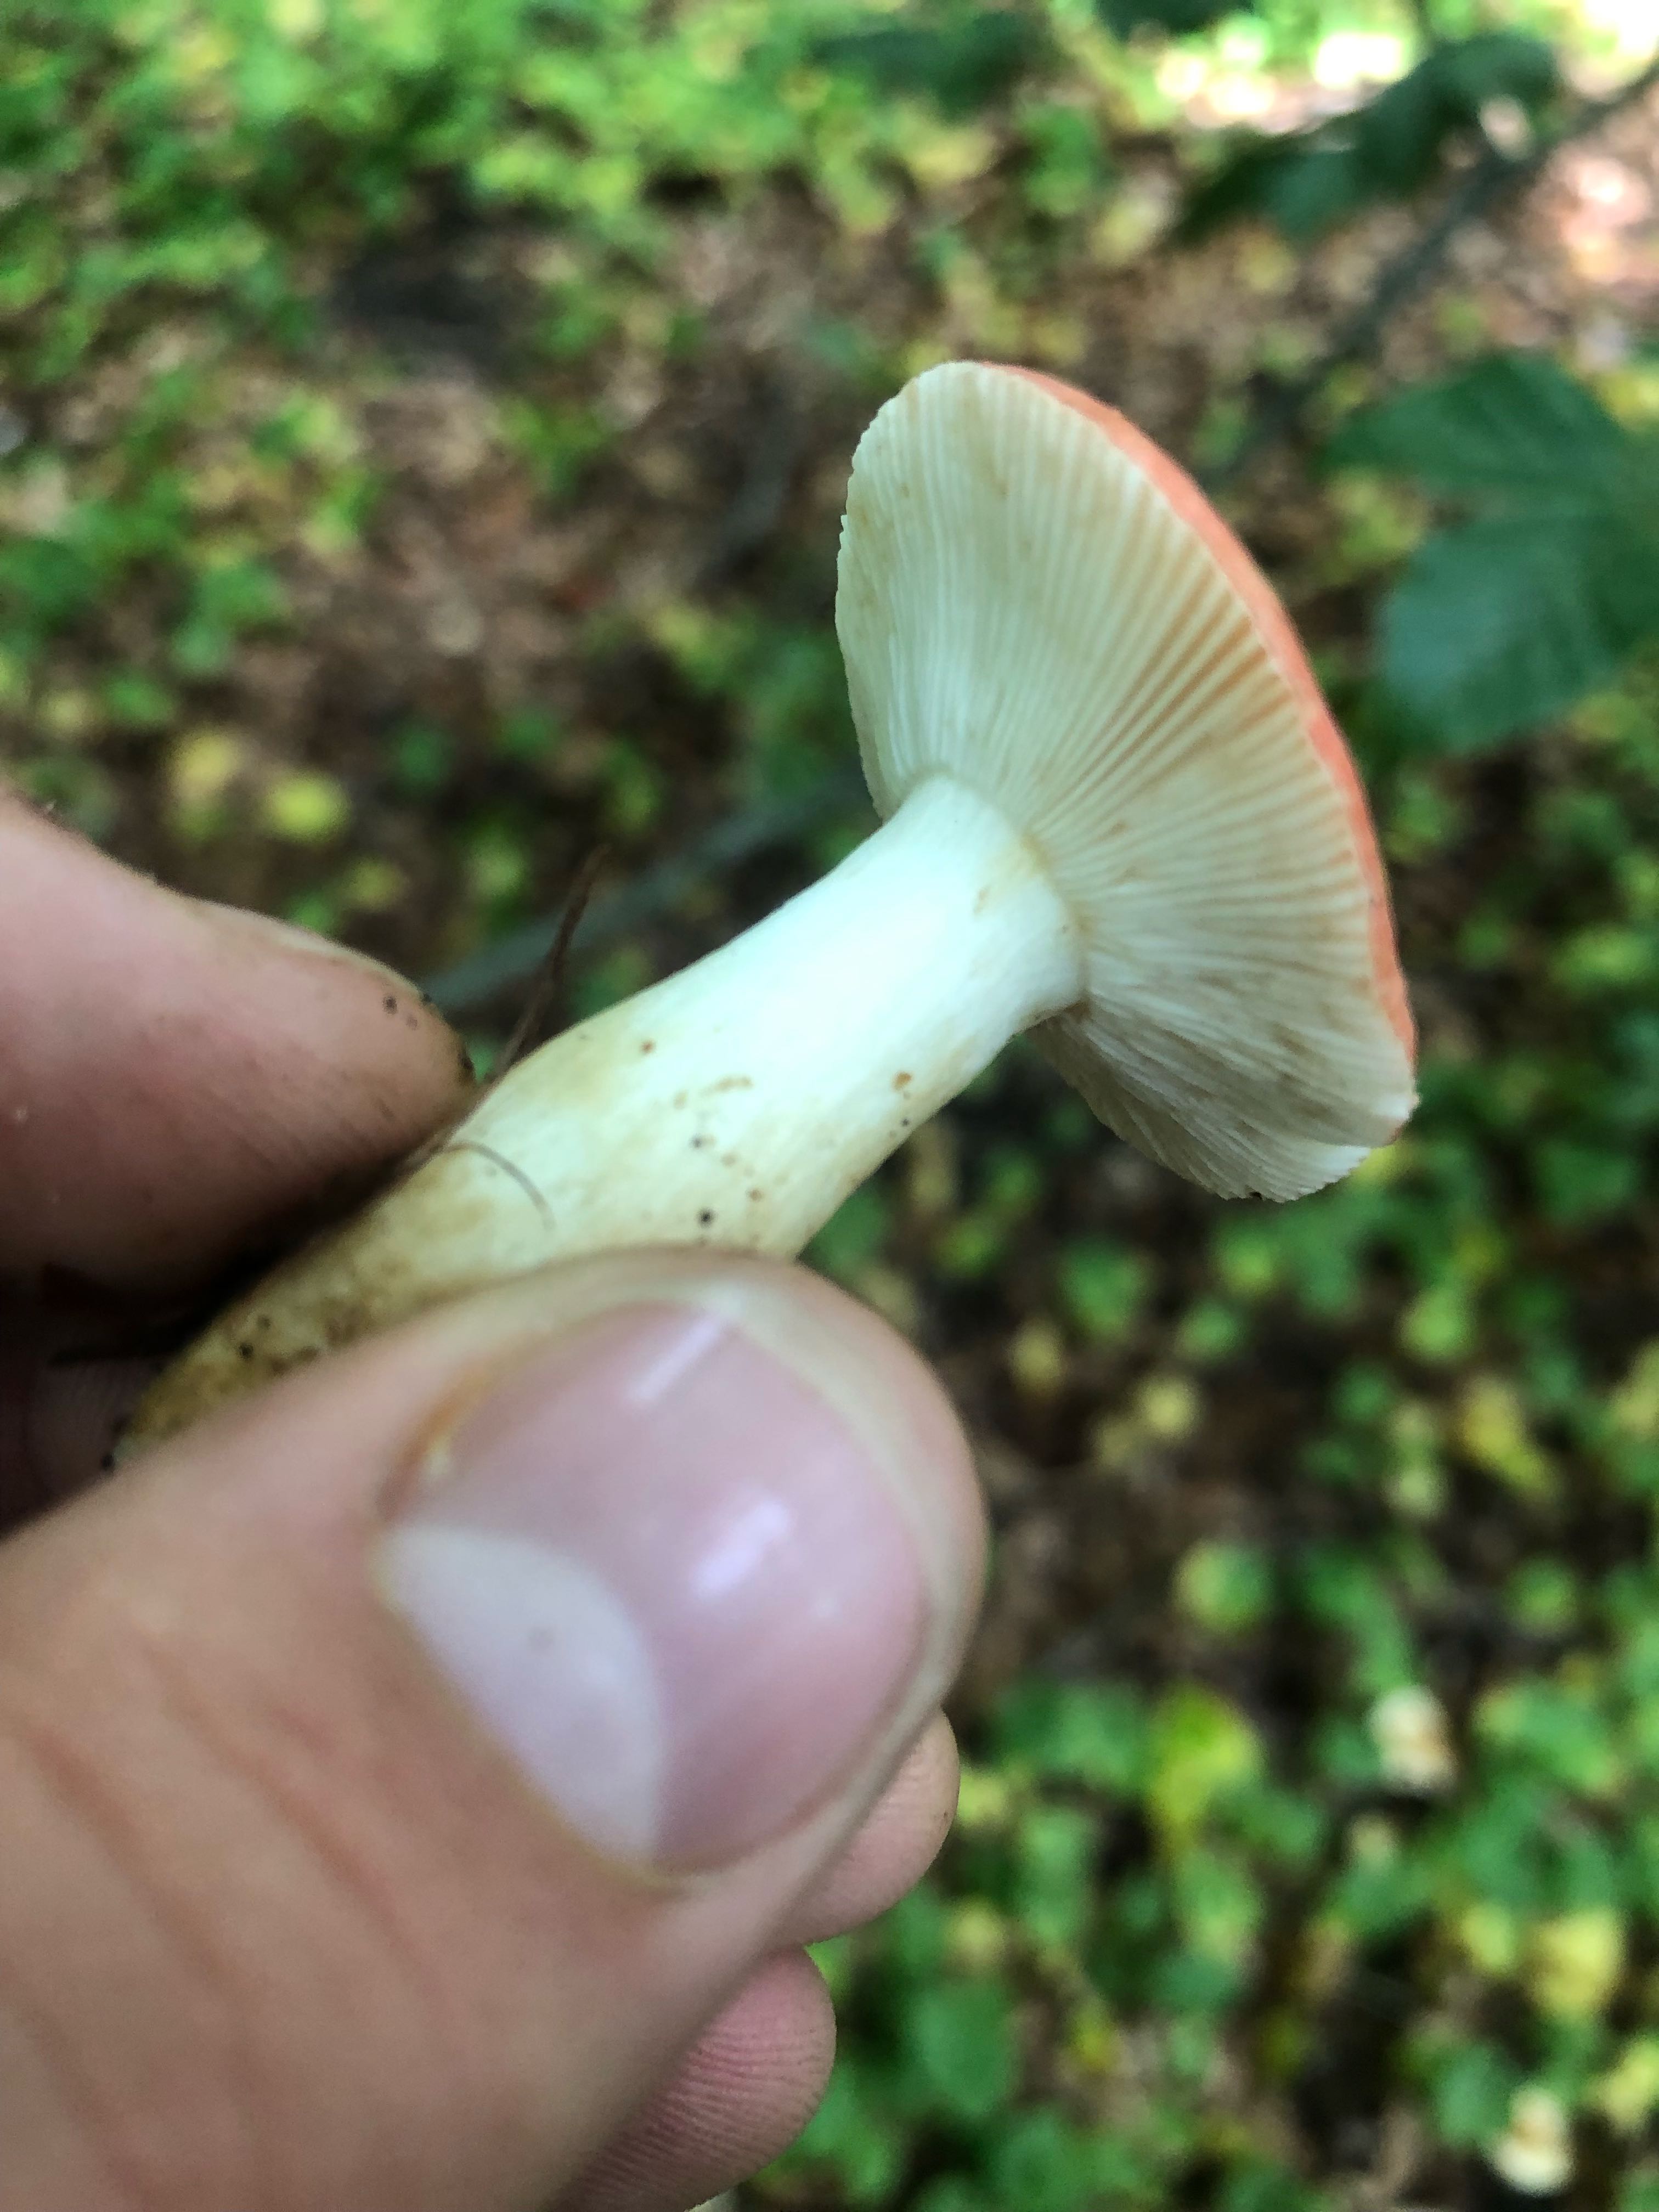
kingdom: Fungi
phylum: Basidiomycota
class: Agaricomycetes
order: Russulales
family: Russulaceae
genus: Russula
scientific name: Russula
